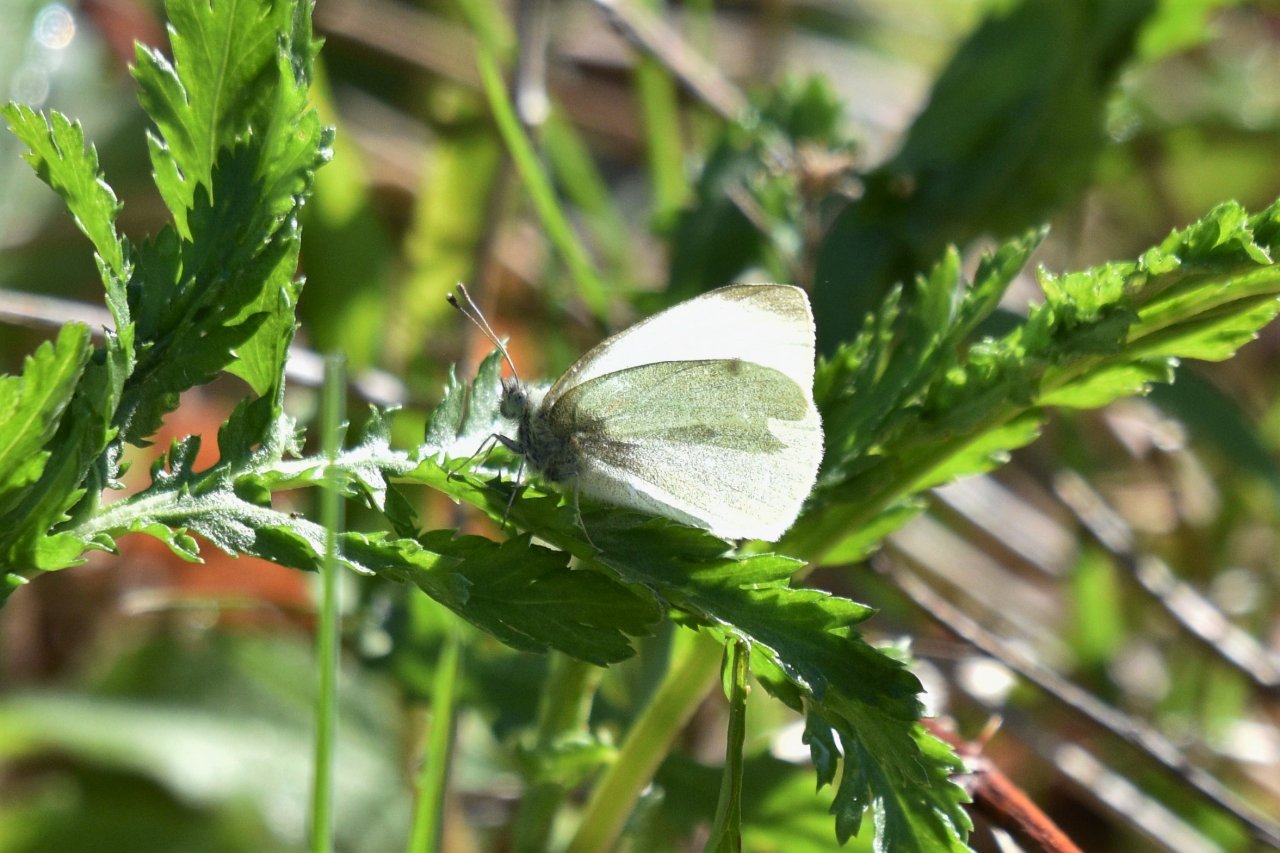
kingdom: Animalia
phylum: Arthropoda
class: Insecta
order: Lepidoptera
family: Pieridae
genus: Pieris
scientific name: Pieris rapae
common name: Cabbage White
